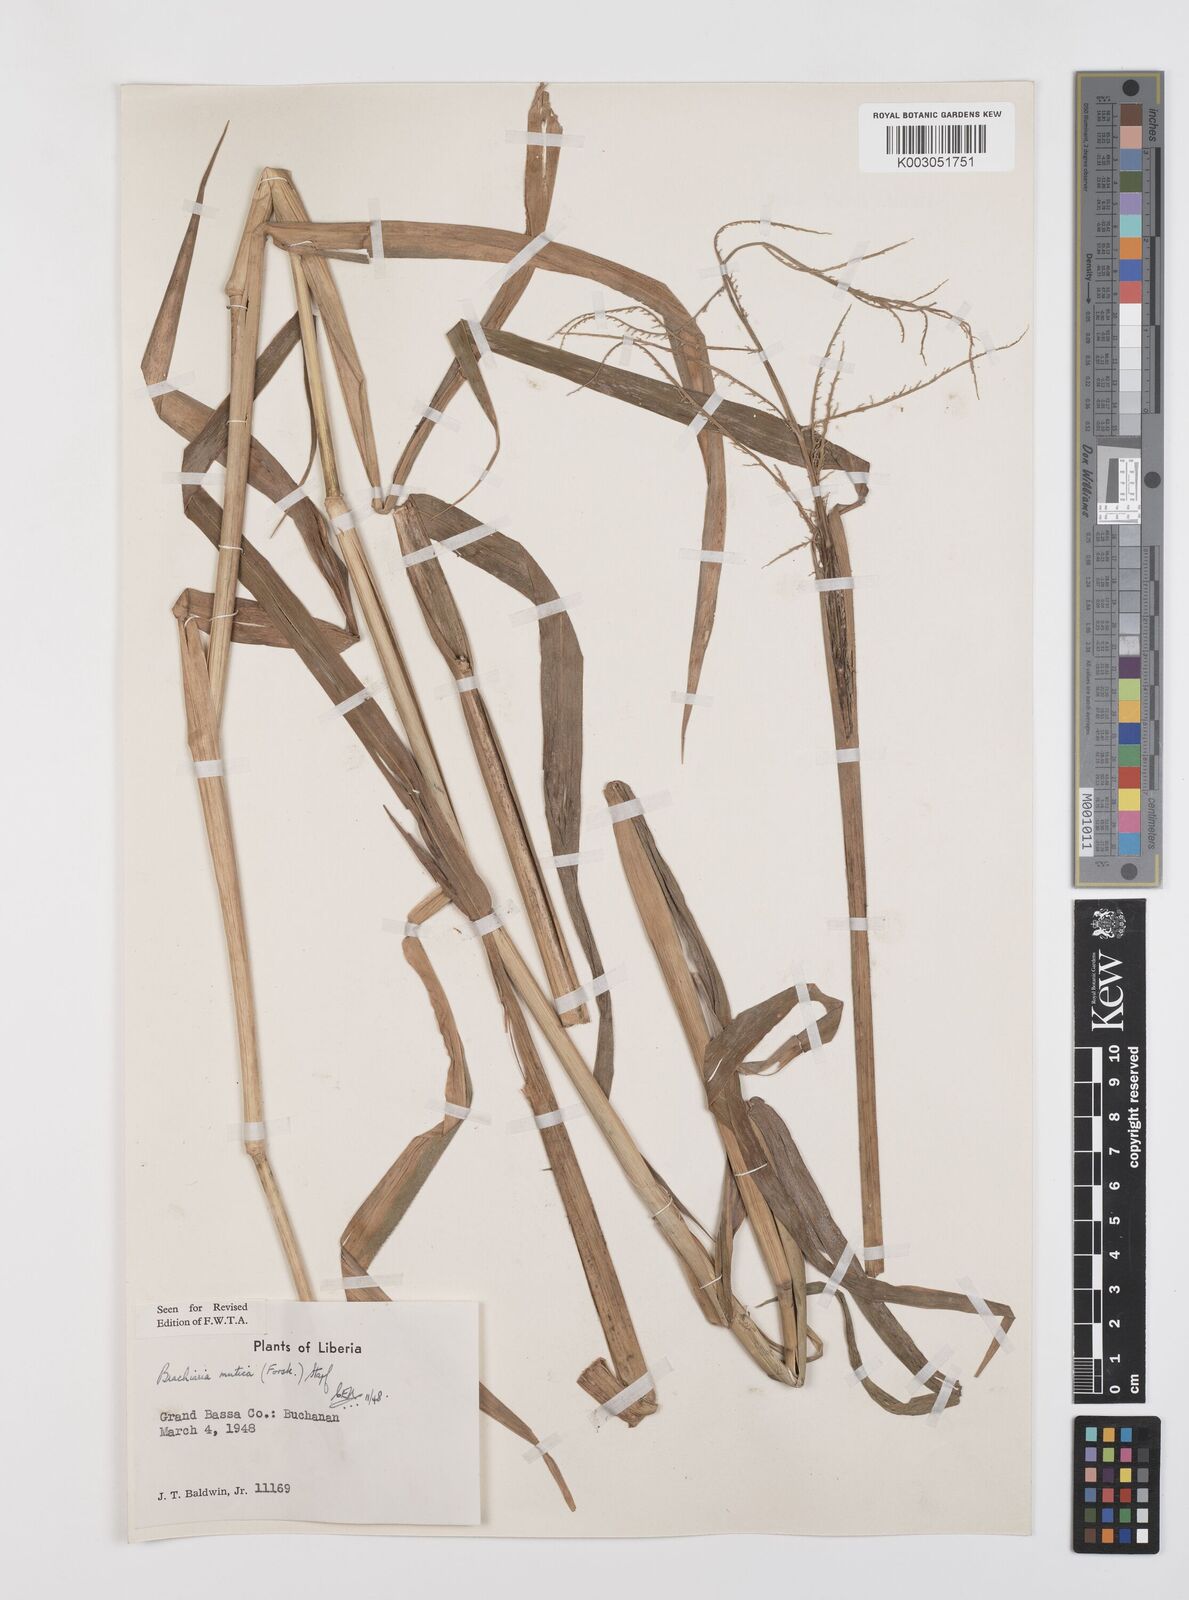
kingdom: Plantae
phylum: Tracheophyta
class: Liliopsida
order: Poales
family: Poaceae
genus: Urochloa
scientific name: Urochloa mutica
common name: Para grass
